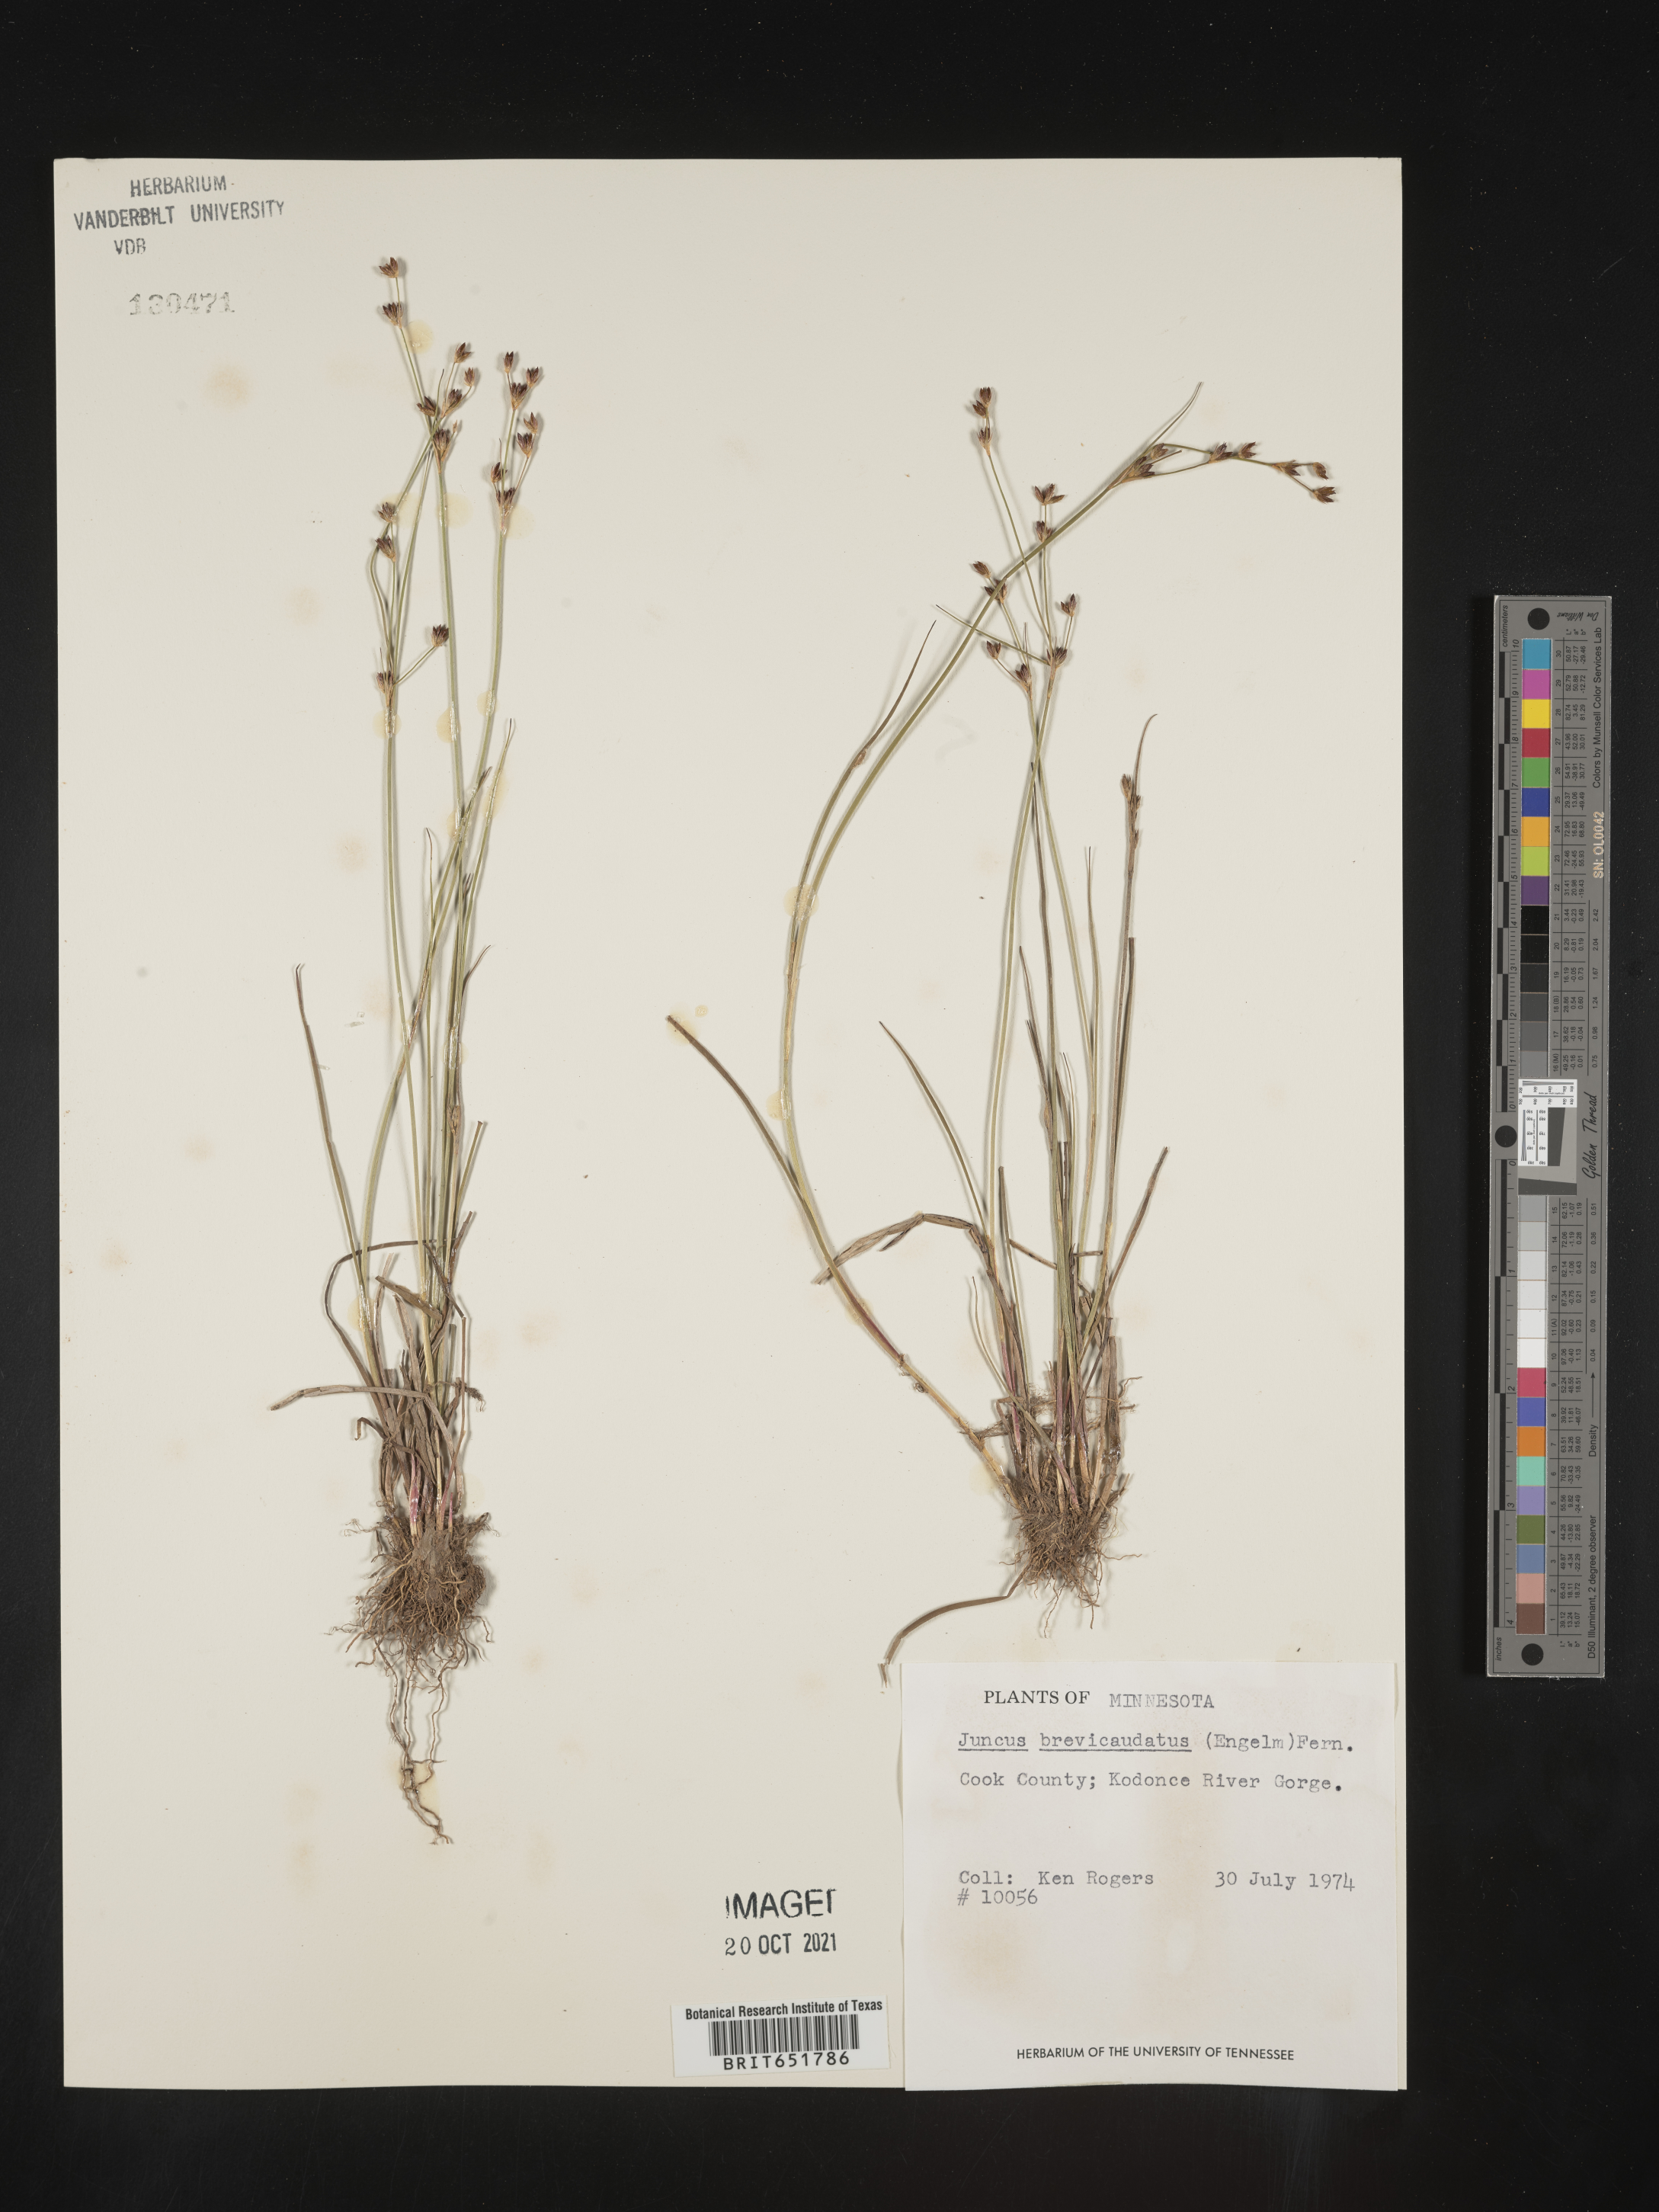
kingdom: Plantae
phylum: Tracheophyta
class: Liliopsida
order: Poales
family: Juncaceae
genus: Juncus
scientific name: Juncus brevicaudatus
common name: Narrow-panicle rush
